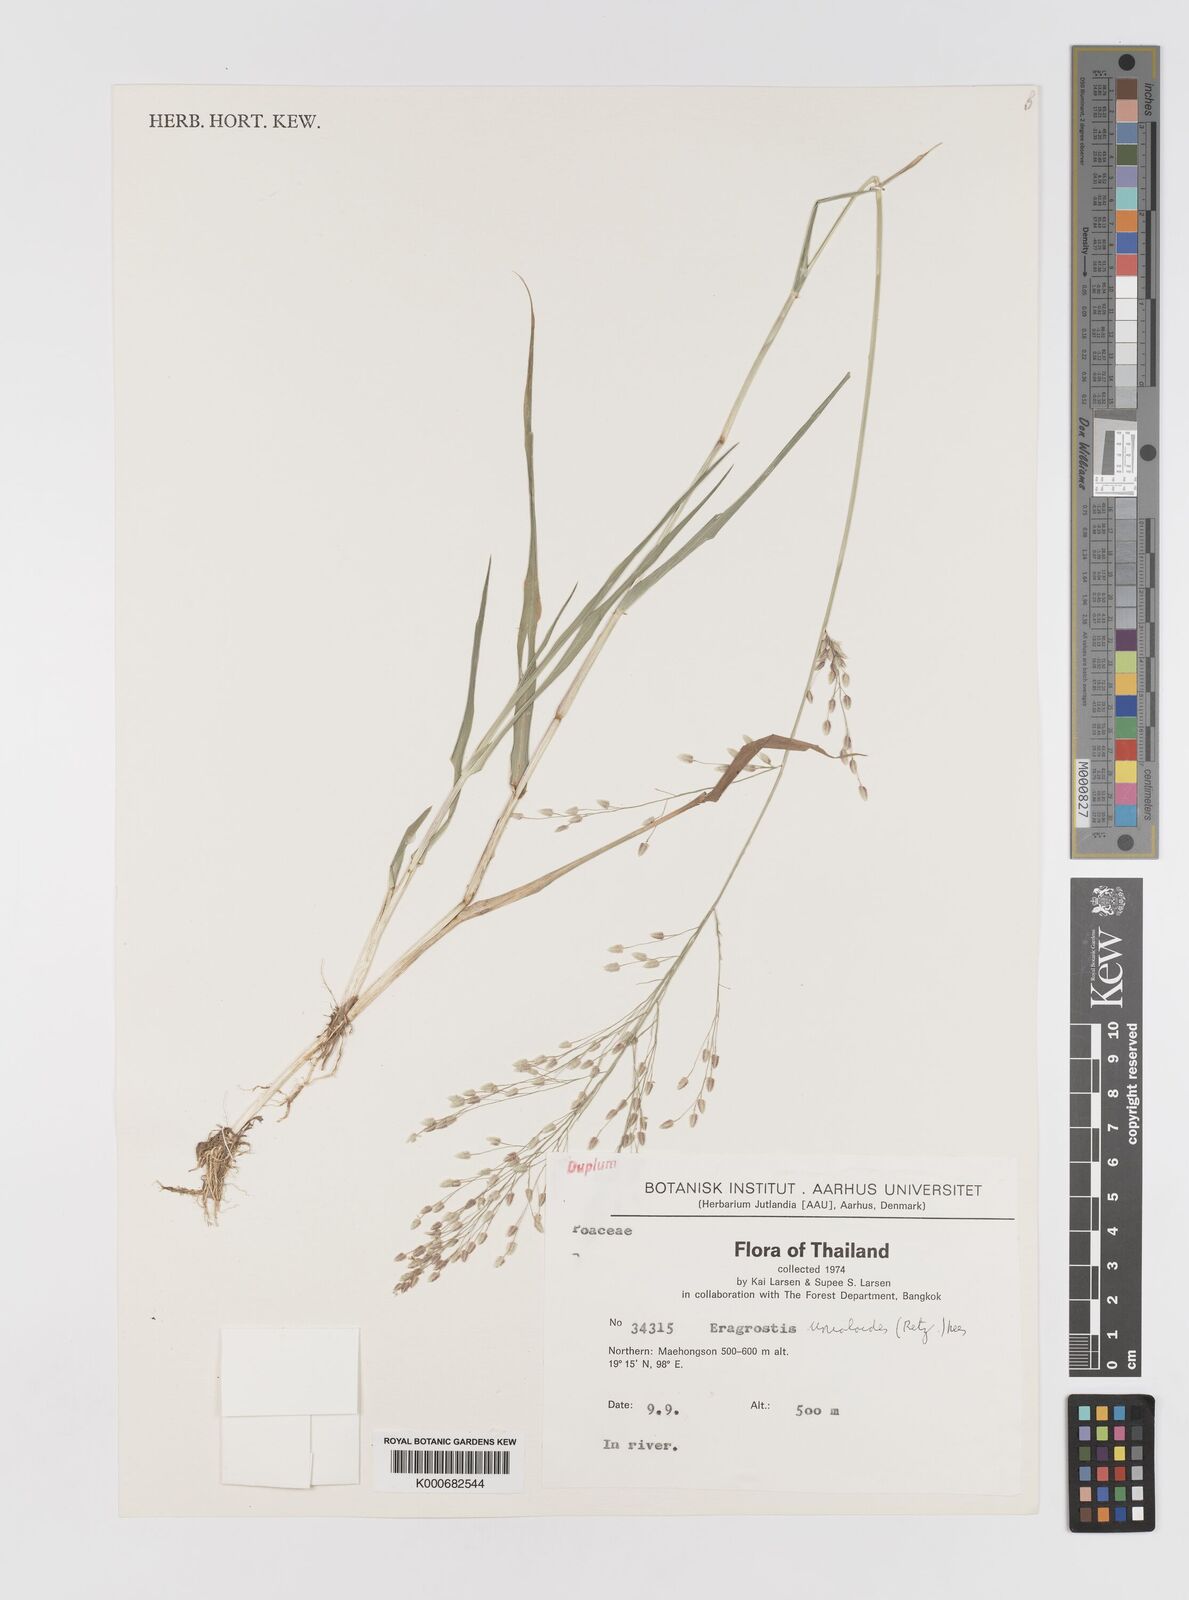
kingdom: Plantae
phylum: Tracheophyta
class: Liliopsida
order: Poales
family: Poaceae
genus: Eragrostis
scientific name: Eragrostis unioloides
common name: Chinese lovegrass
